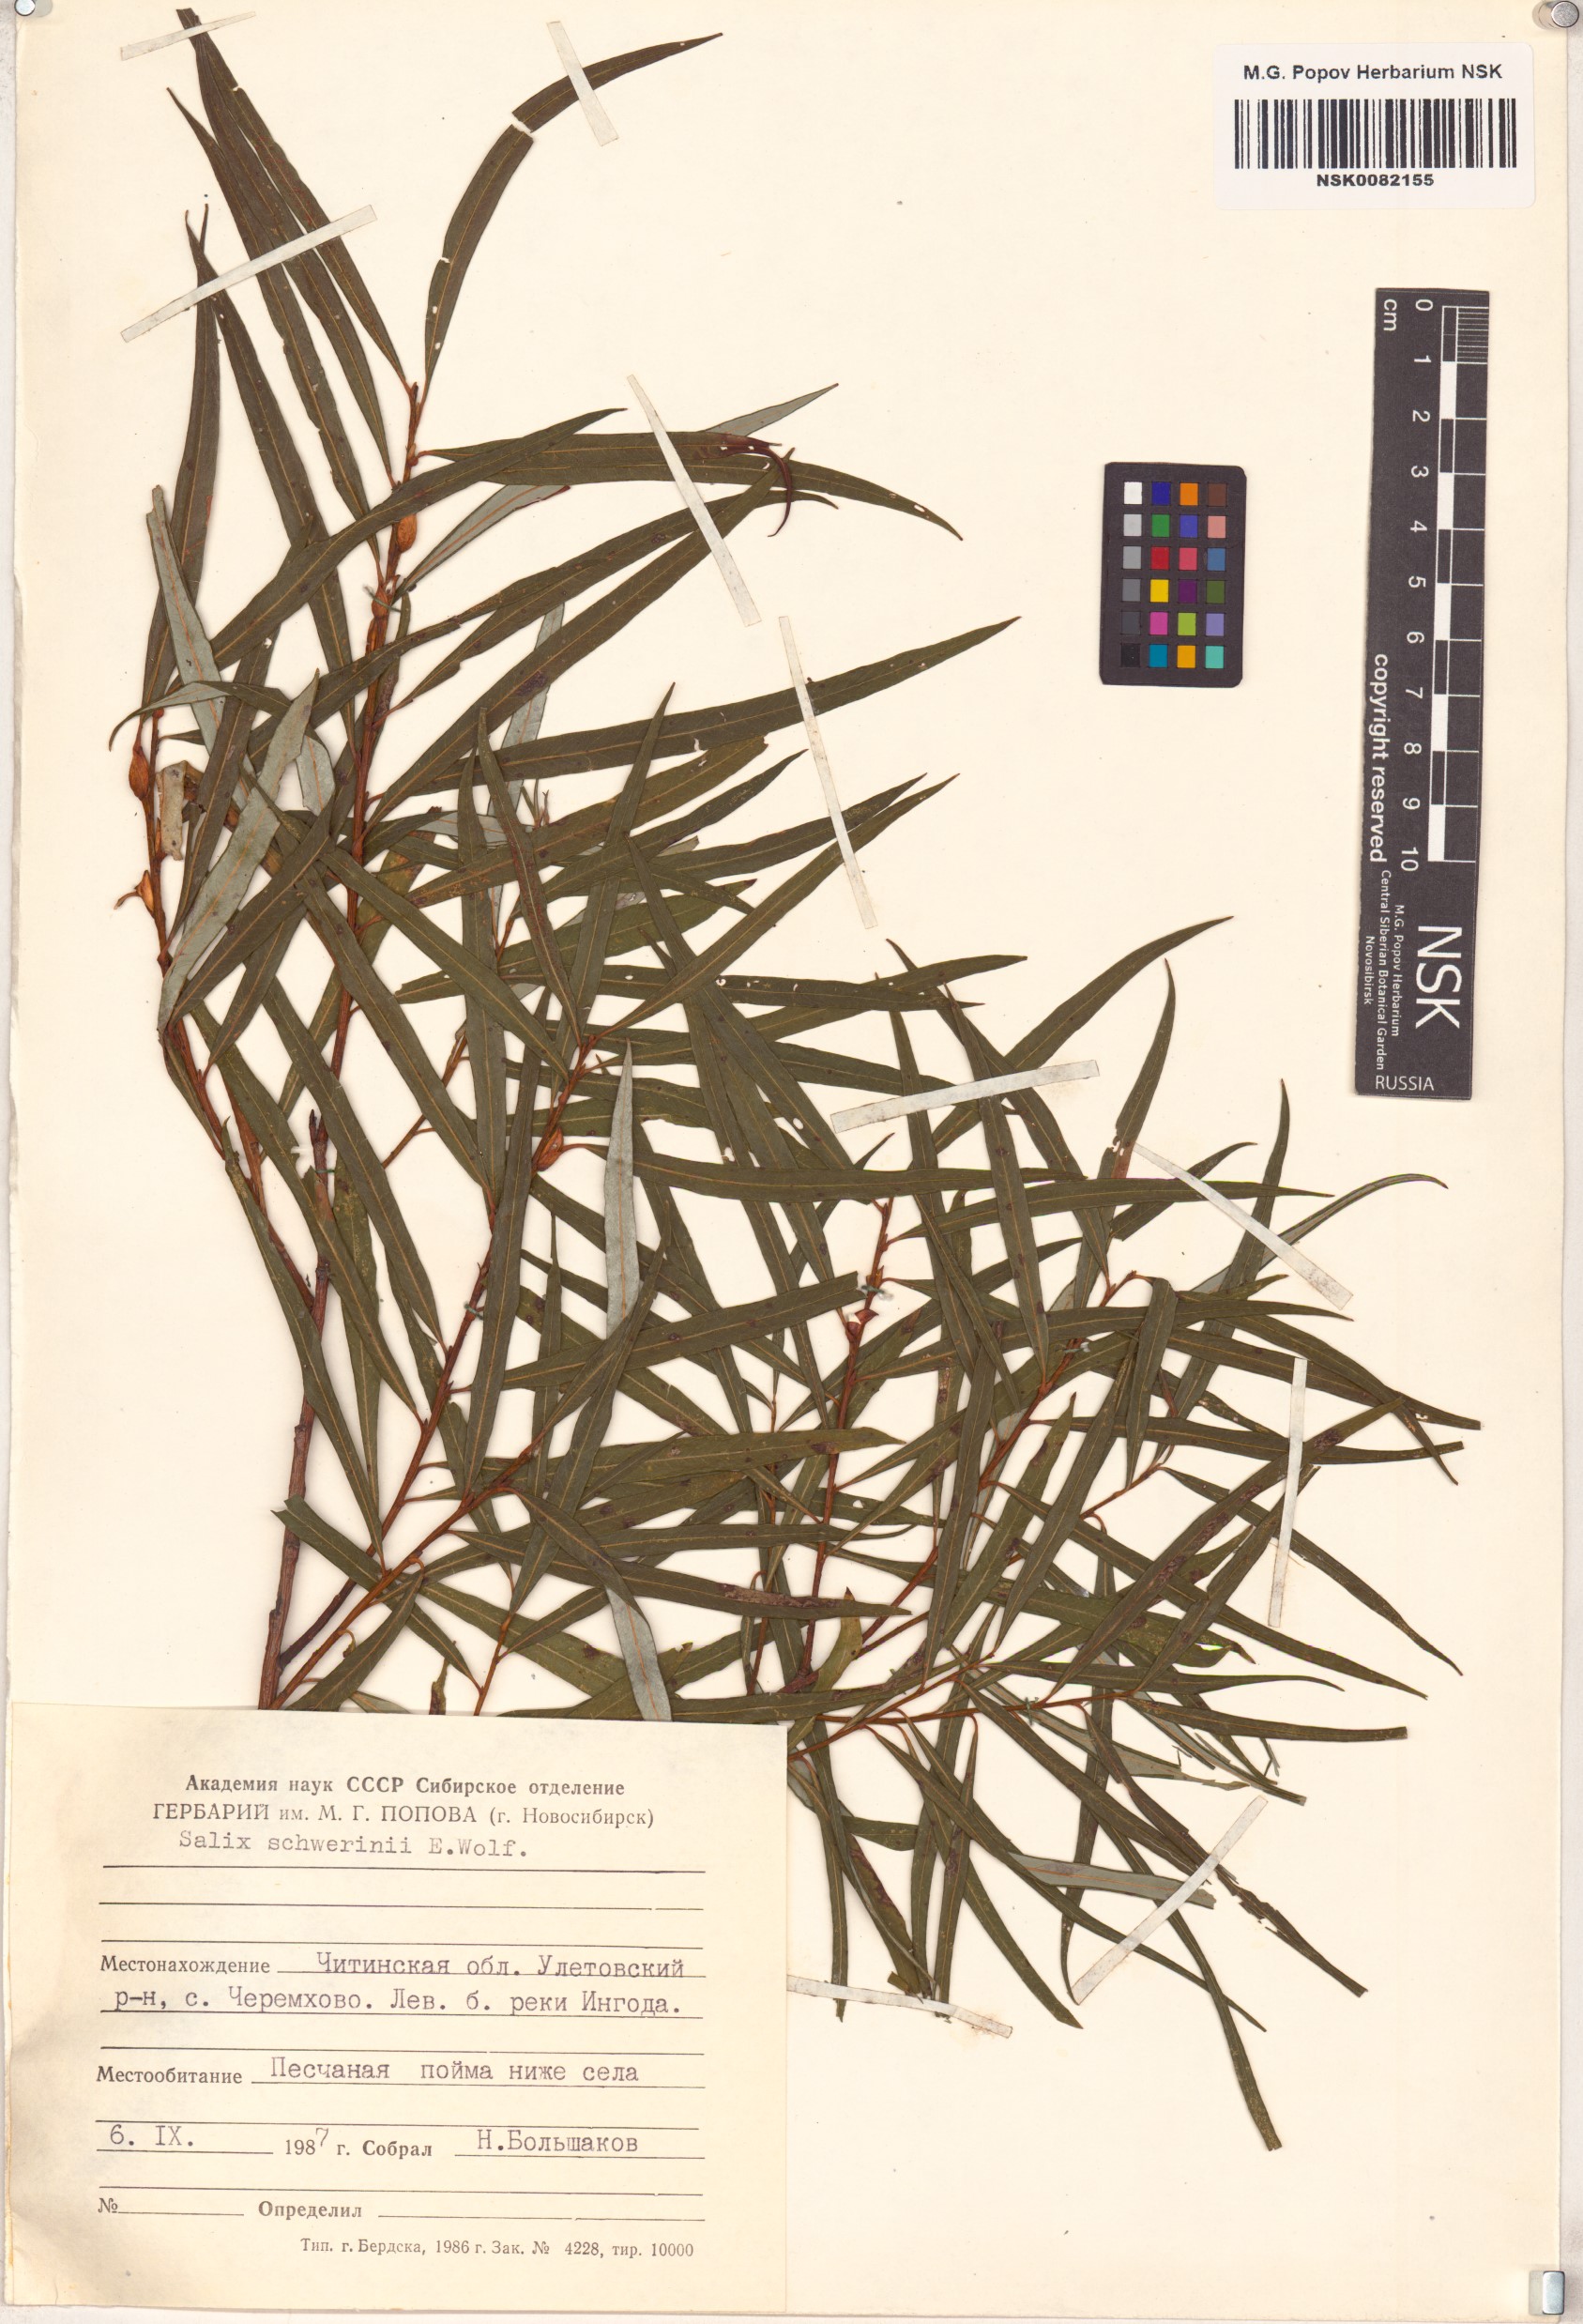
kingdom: Plantae
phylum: Tracheophyta
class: Magnoliopsida
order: Malpighiales
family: Salicaceae
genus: Salix
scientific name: Salix schwerinii
